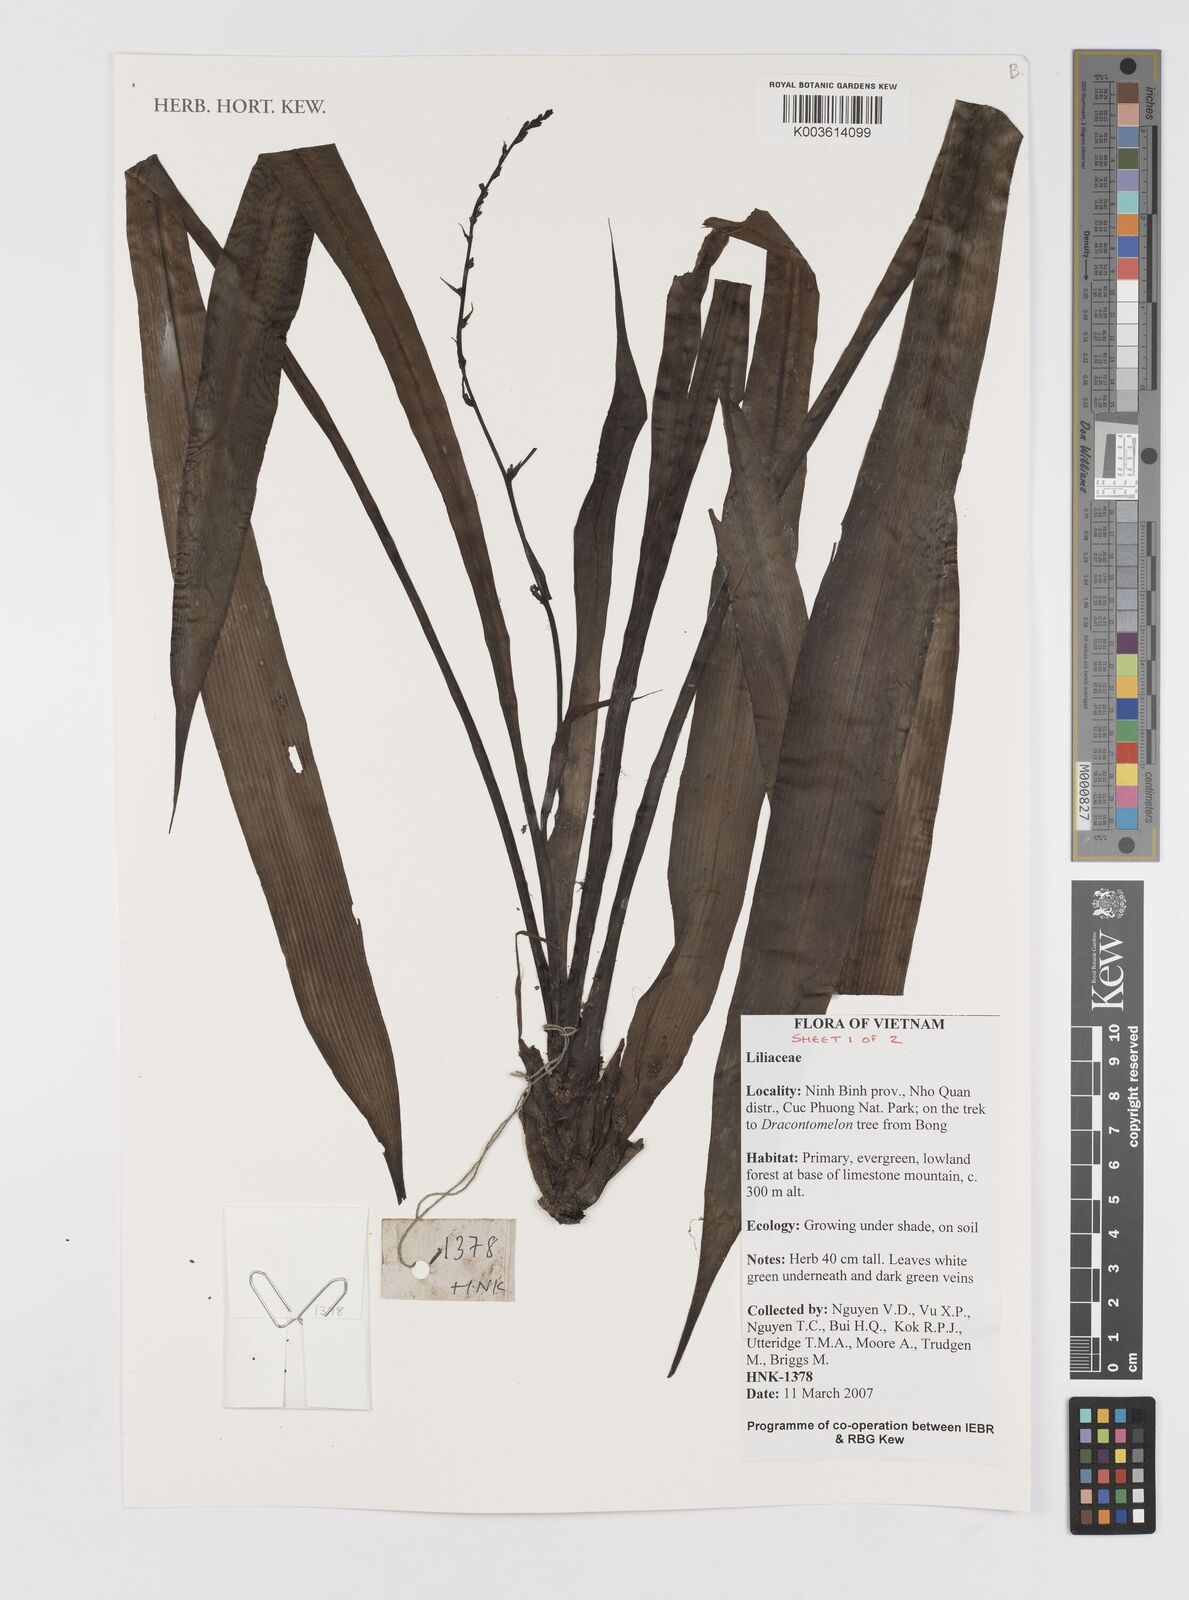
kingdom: Plantae
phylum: Tracheophyta
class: Liliopsida
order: Asparagales
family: Hypoxidaceae
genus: Curculigo
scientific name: Curculigo
